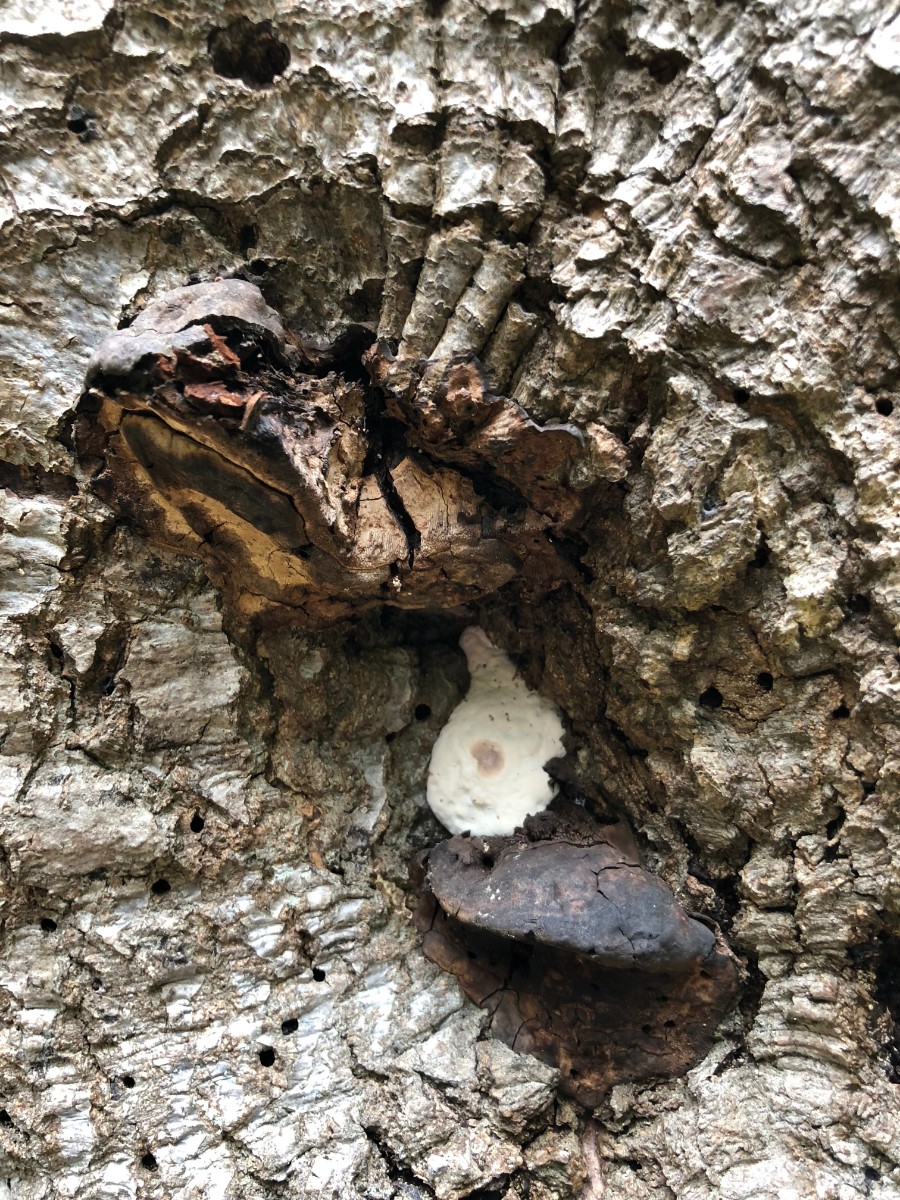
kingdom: Fungi
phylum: Basidiomycota
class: Agaricomycetes
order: Polyporales
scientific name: Polyporales
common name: poresvampordenen
